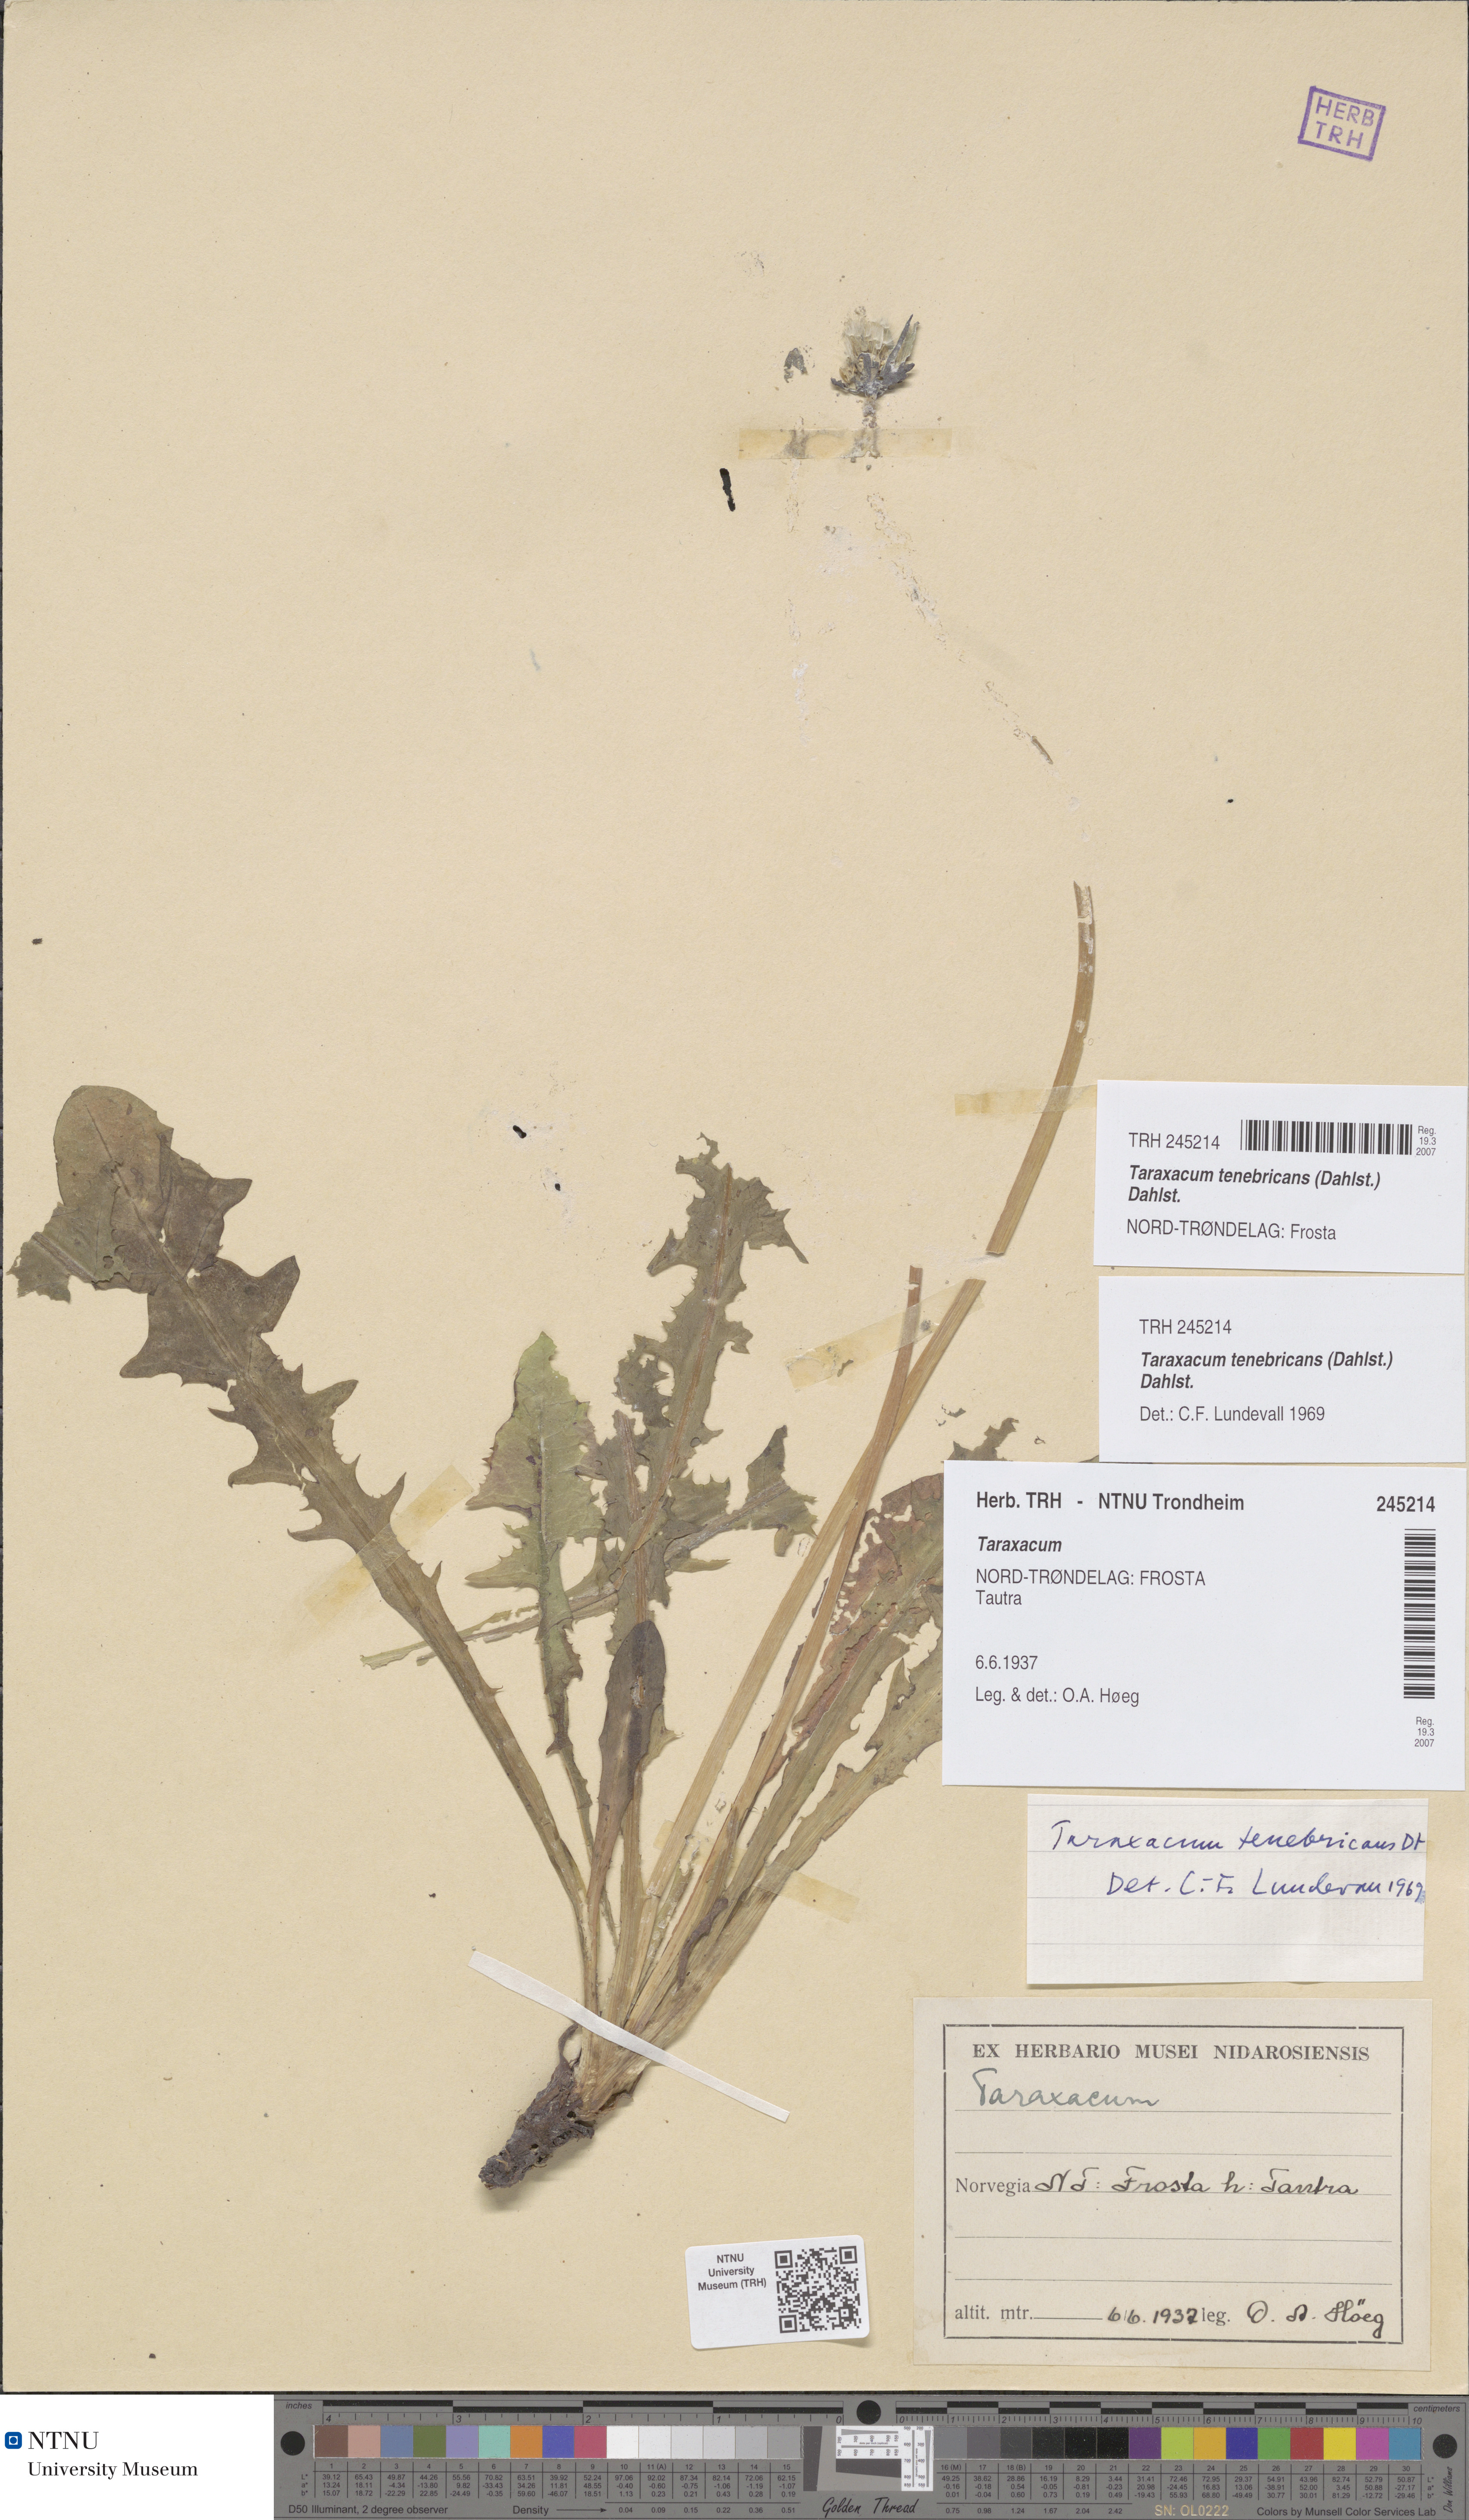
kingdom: Plantae
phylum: Tracheophyta
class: Magnoliopsida
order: Asterales
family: Asteraceae
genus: Taraxacum
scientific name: Taraxacum tenebricans
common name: Shiny-leaved dandelion
